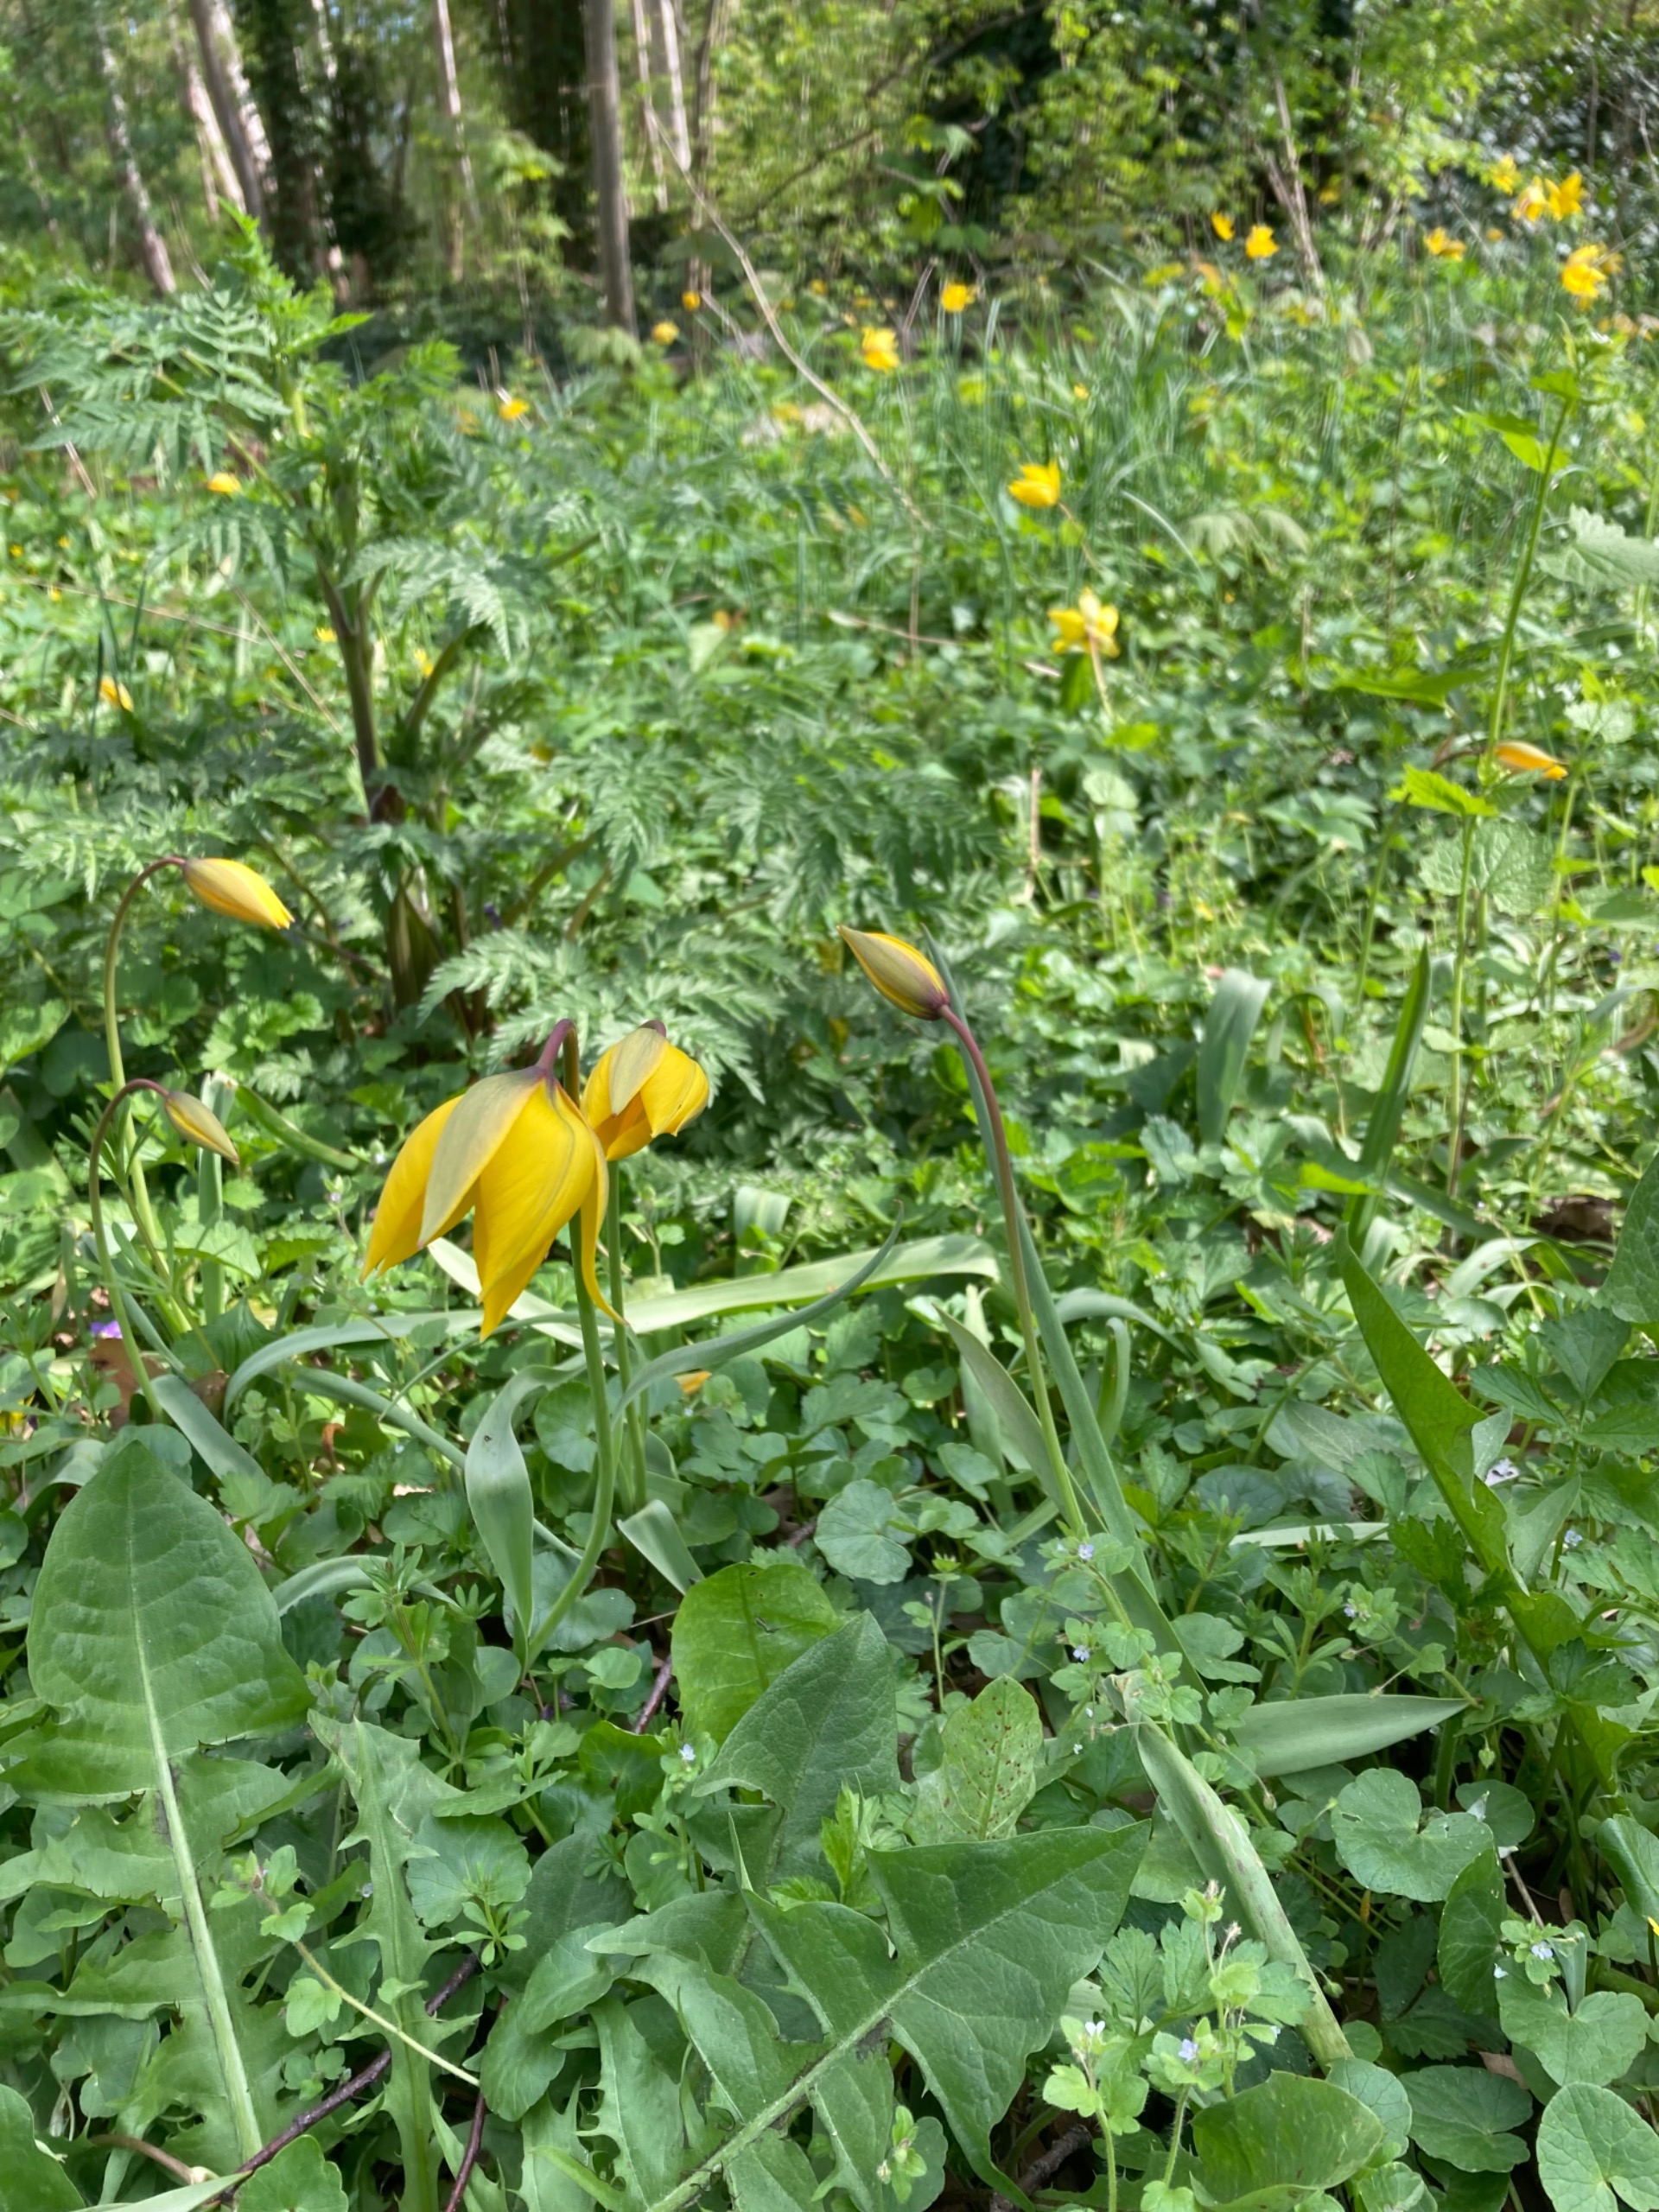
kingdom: Plantae
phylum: Tracheophyta
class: Liliopsida
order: Liliales
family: Liliaceae
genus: Tulipa
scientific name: Tulipa sylvestris
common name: Vild tulipan
